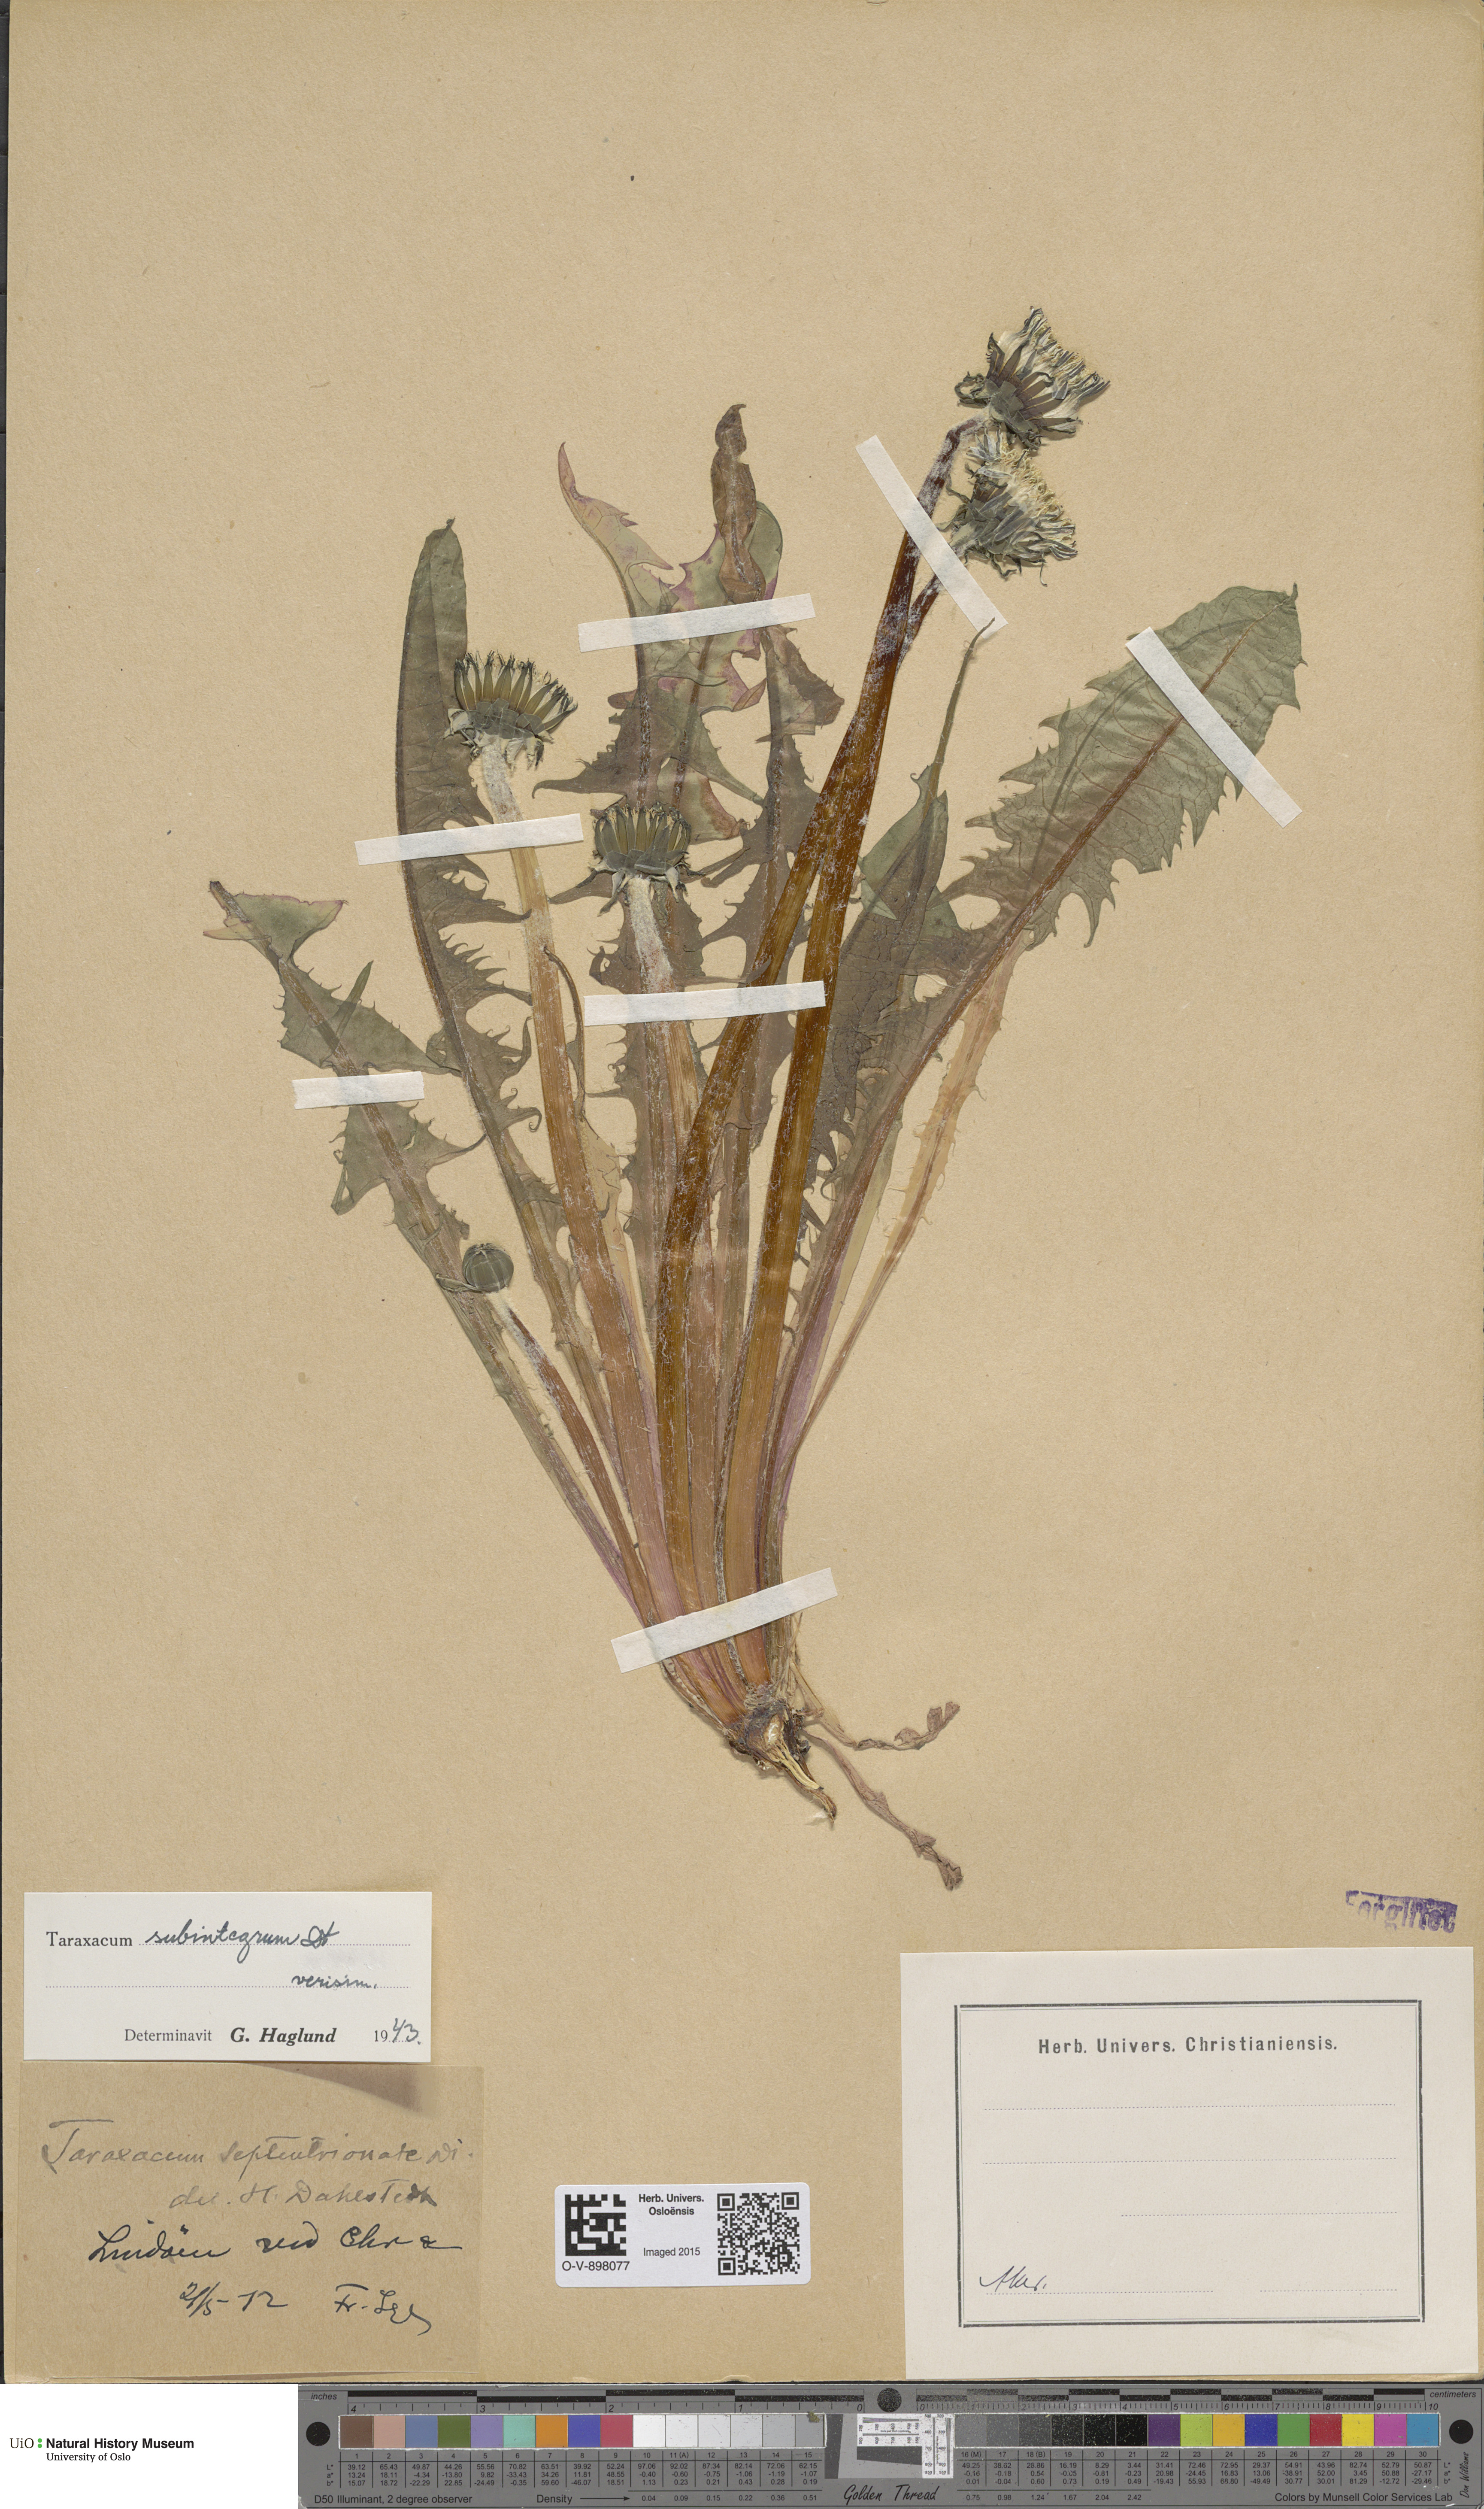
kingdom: Plantae
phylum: Tracheophyta
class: Magnoliopsida
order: Asterales
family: Asteraceae
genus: Taraxacum
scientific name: Taraxacum subintegrum
